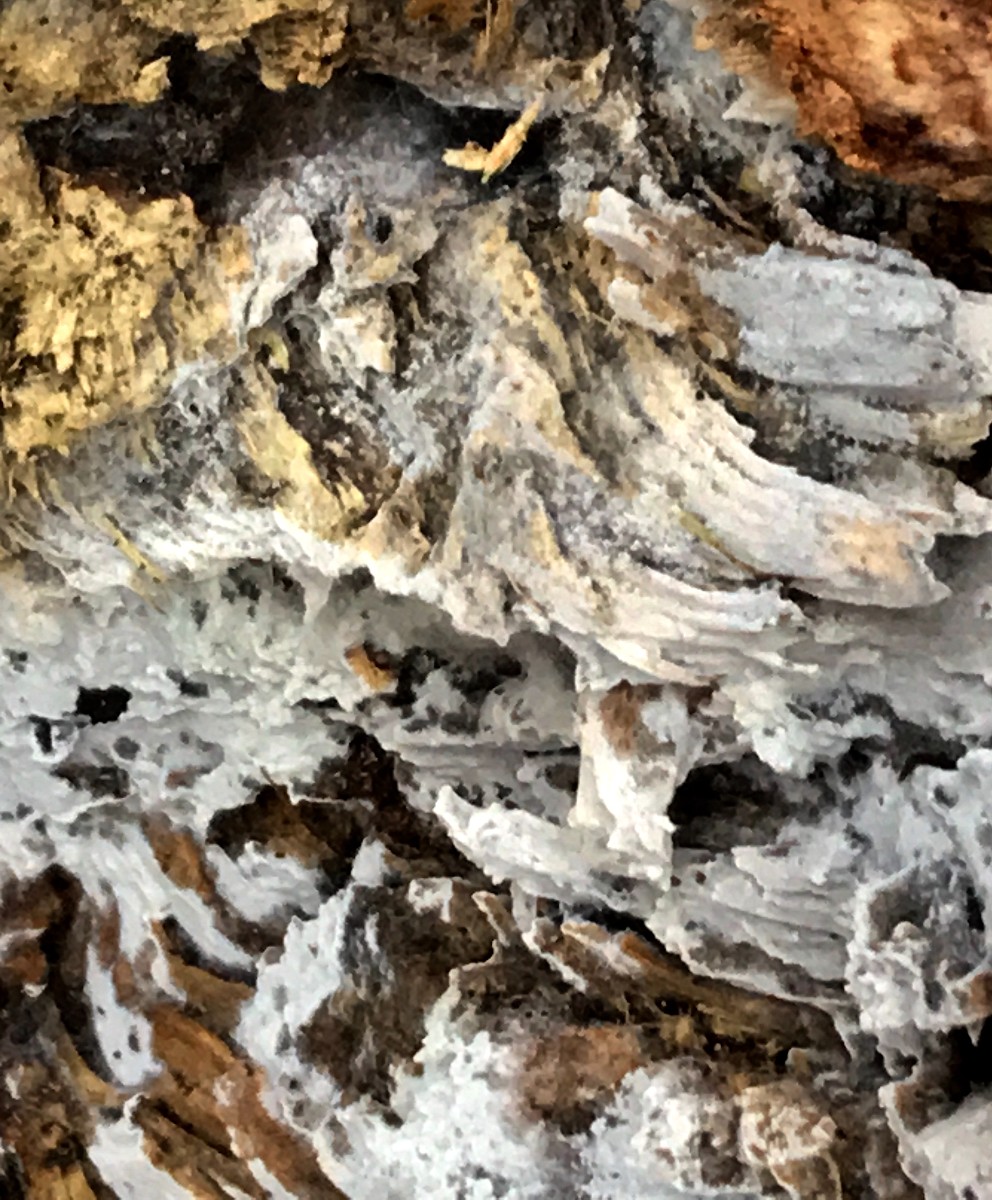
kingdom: Fungi
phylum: Basidiomycota
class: Agaricomycetes
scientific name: Agaricomycetes
